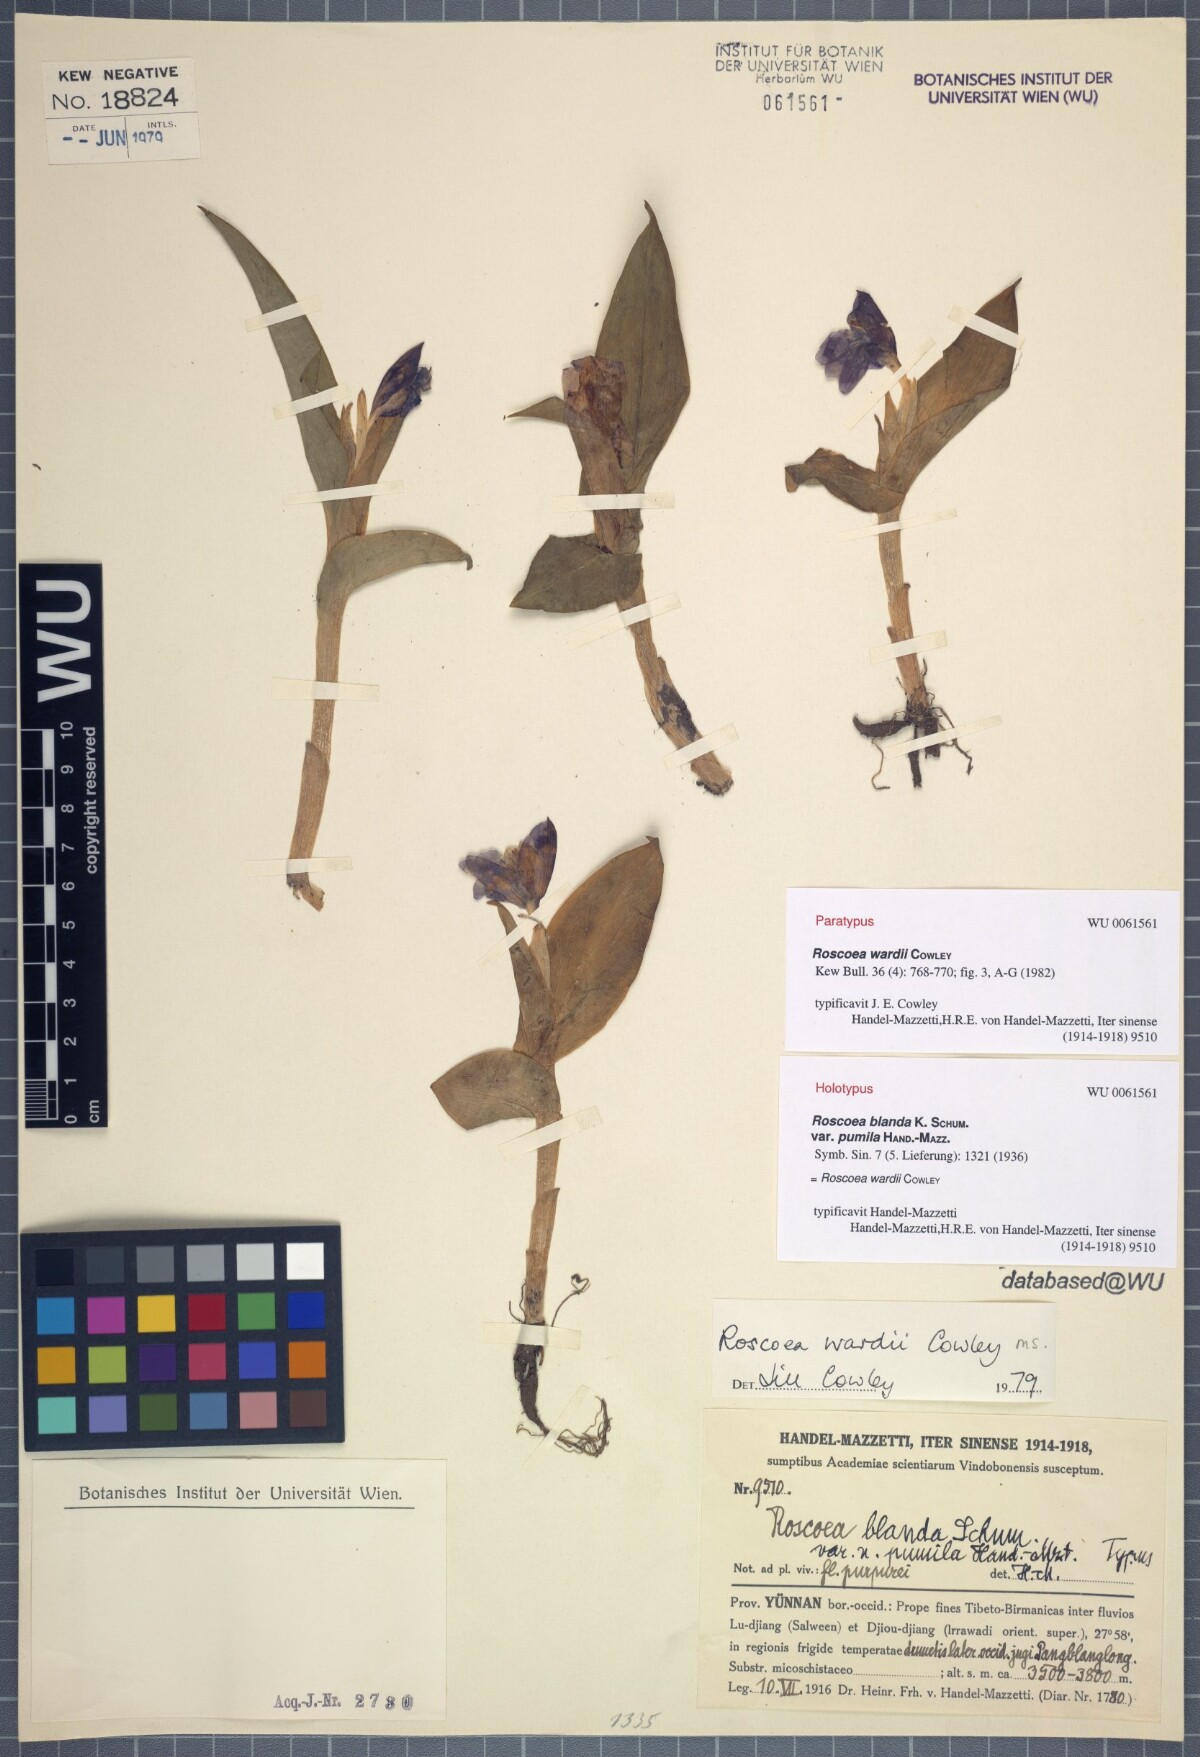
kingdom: Plantae
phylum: Tracheophyta
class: Liliopsida
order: Zingiberales
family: Zingiberaceae
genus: Roscoea
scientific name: Roscoea wardii
